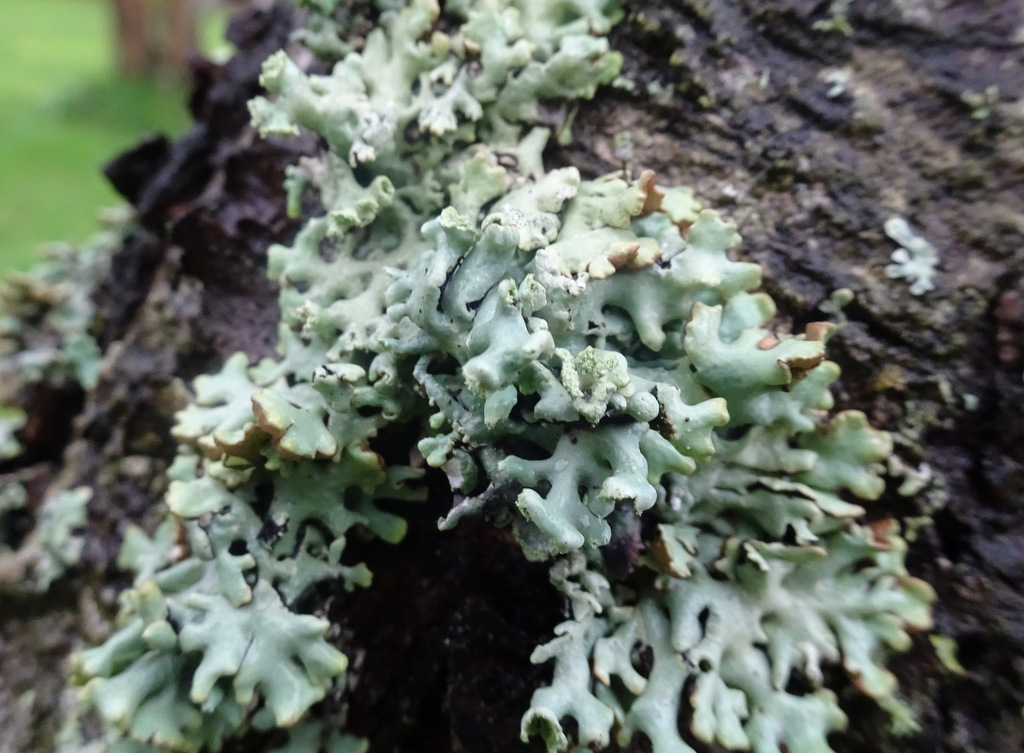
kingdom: Fungi
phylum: Ascomycota
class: Lecanoromycetes
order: Lecanorales
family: Parmeliaceae
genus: Hypogymnia
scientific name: Hypogymnia physodes
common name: almindelig kvistlav
